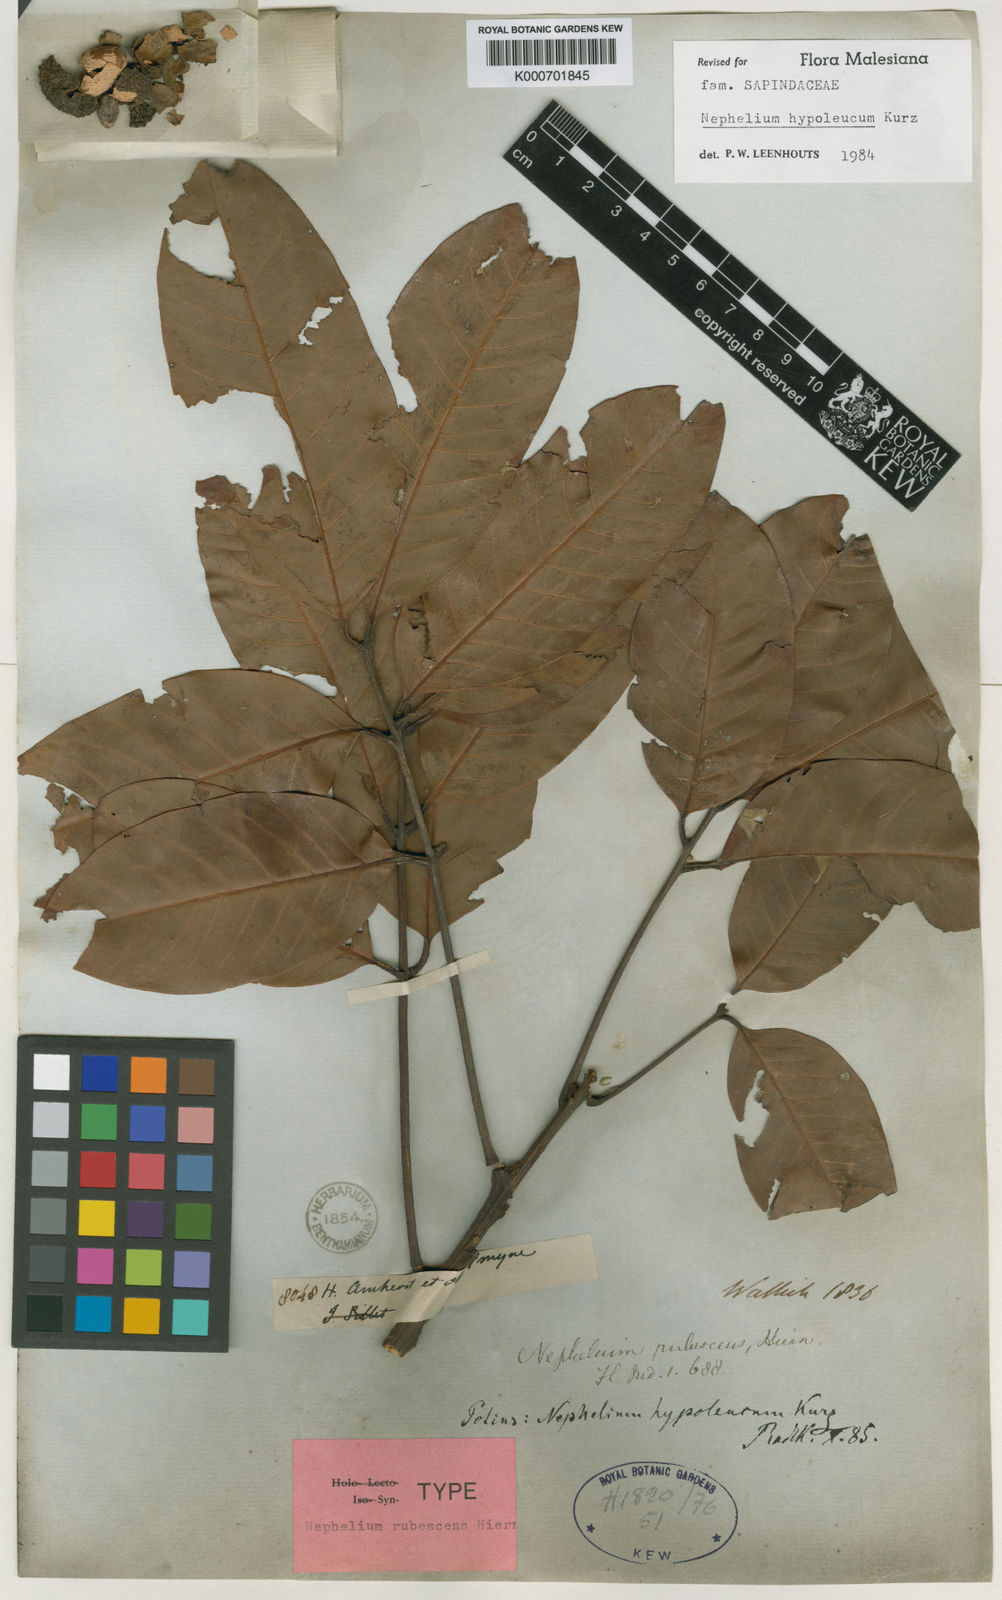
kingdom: Plantae
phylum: Tracheophyta
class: Magnoliopsida
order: Sapindales
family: Sapindaceae
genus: Nephelium
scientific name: Nephelium hypoleucum
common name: Korlan
